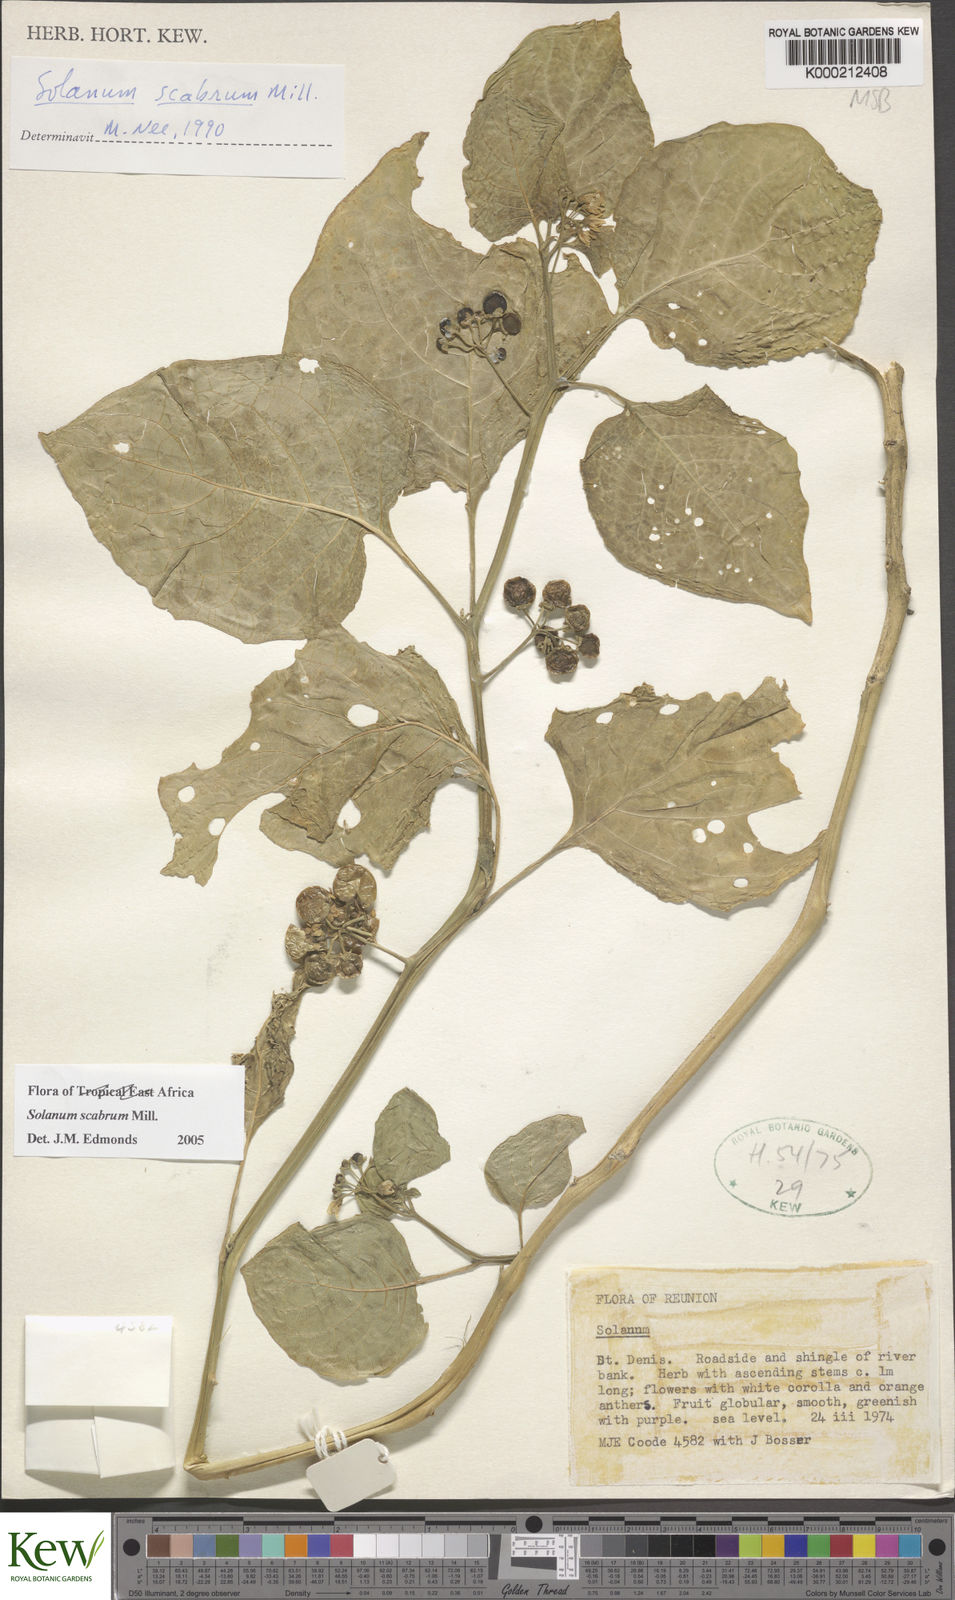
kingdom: Plantae
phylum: Tracheophyta
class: Magnoliopsida
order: Solanales
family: Solanaceae
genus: Solanum
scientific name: Solanum scabrum
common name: Garden-huckleberry
